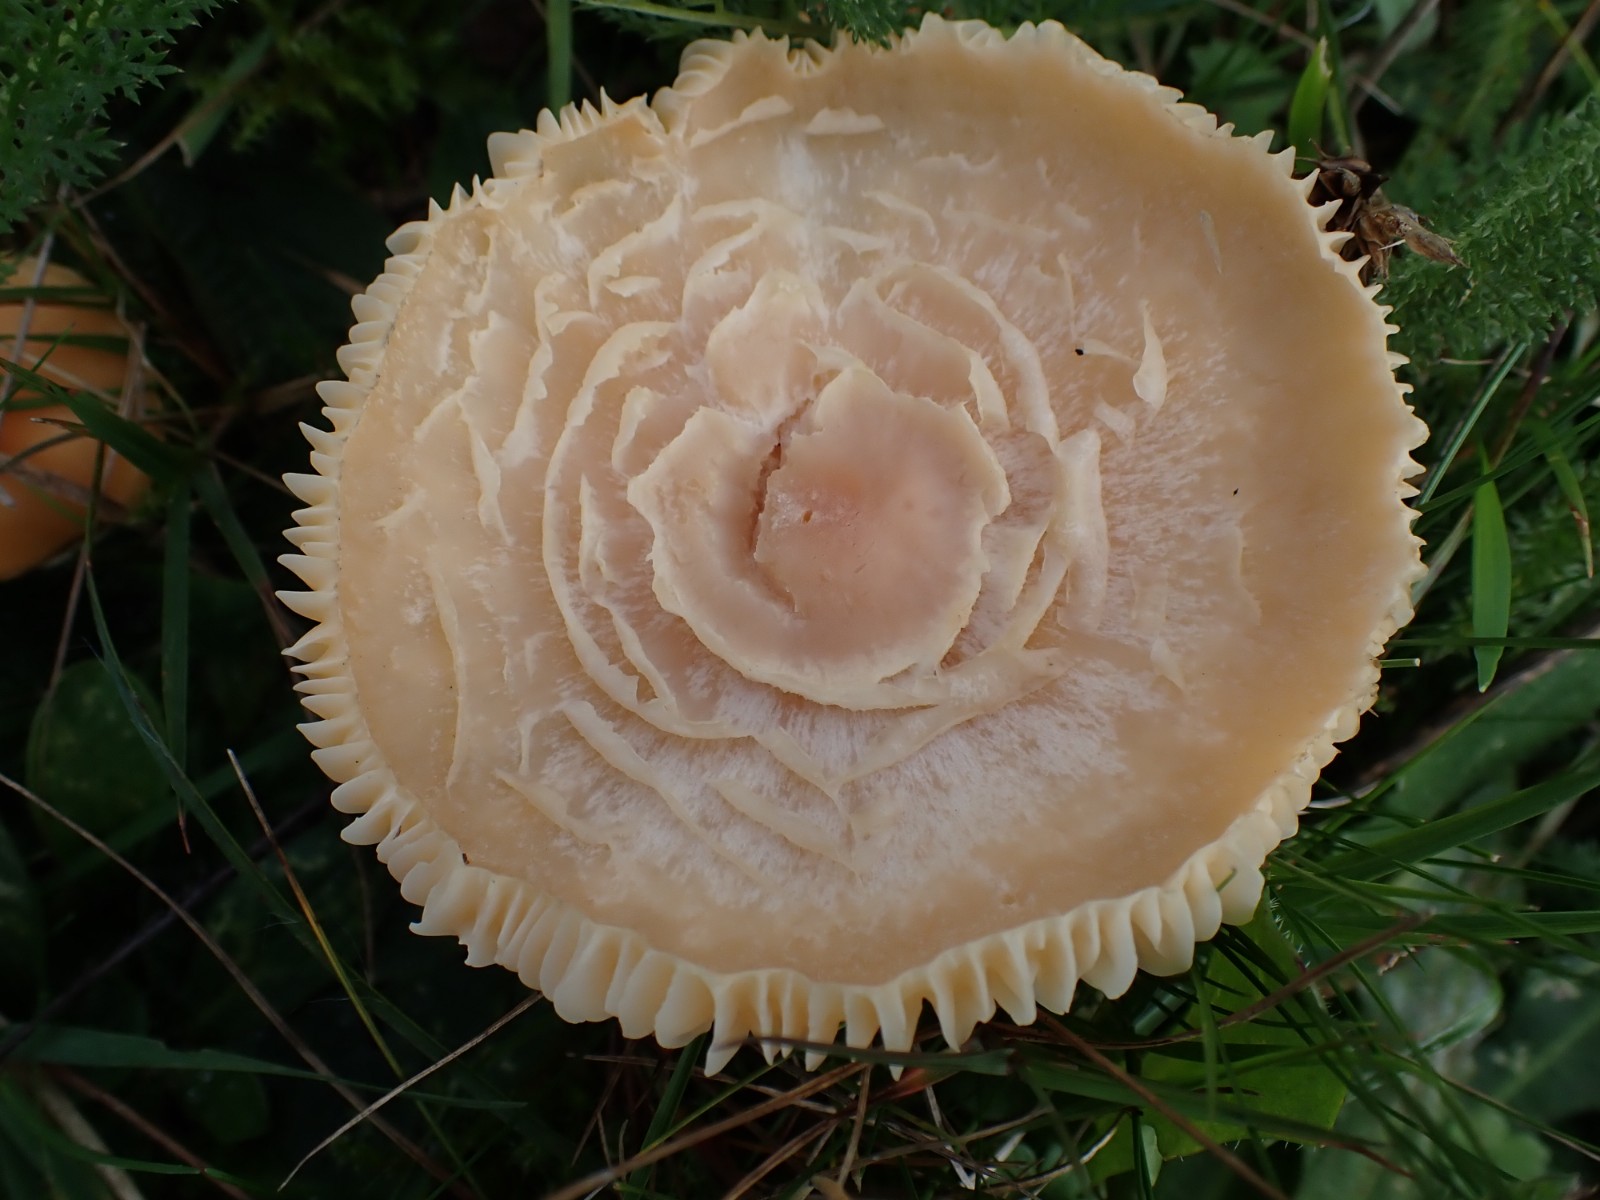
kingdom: Fungi
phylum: Basidiomycota
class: Agaricomycetes
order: Agaricales
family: Hygrophoraceae
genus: Cuphophyllus
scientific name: Cuphophyllus pratensis
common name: eng-vokshat
